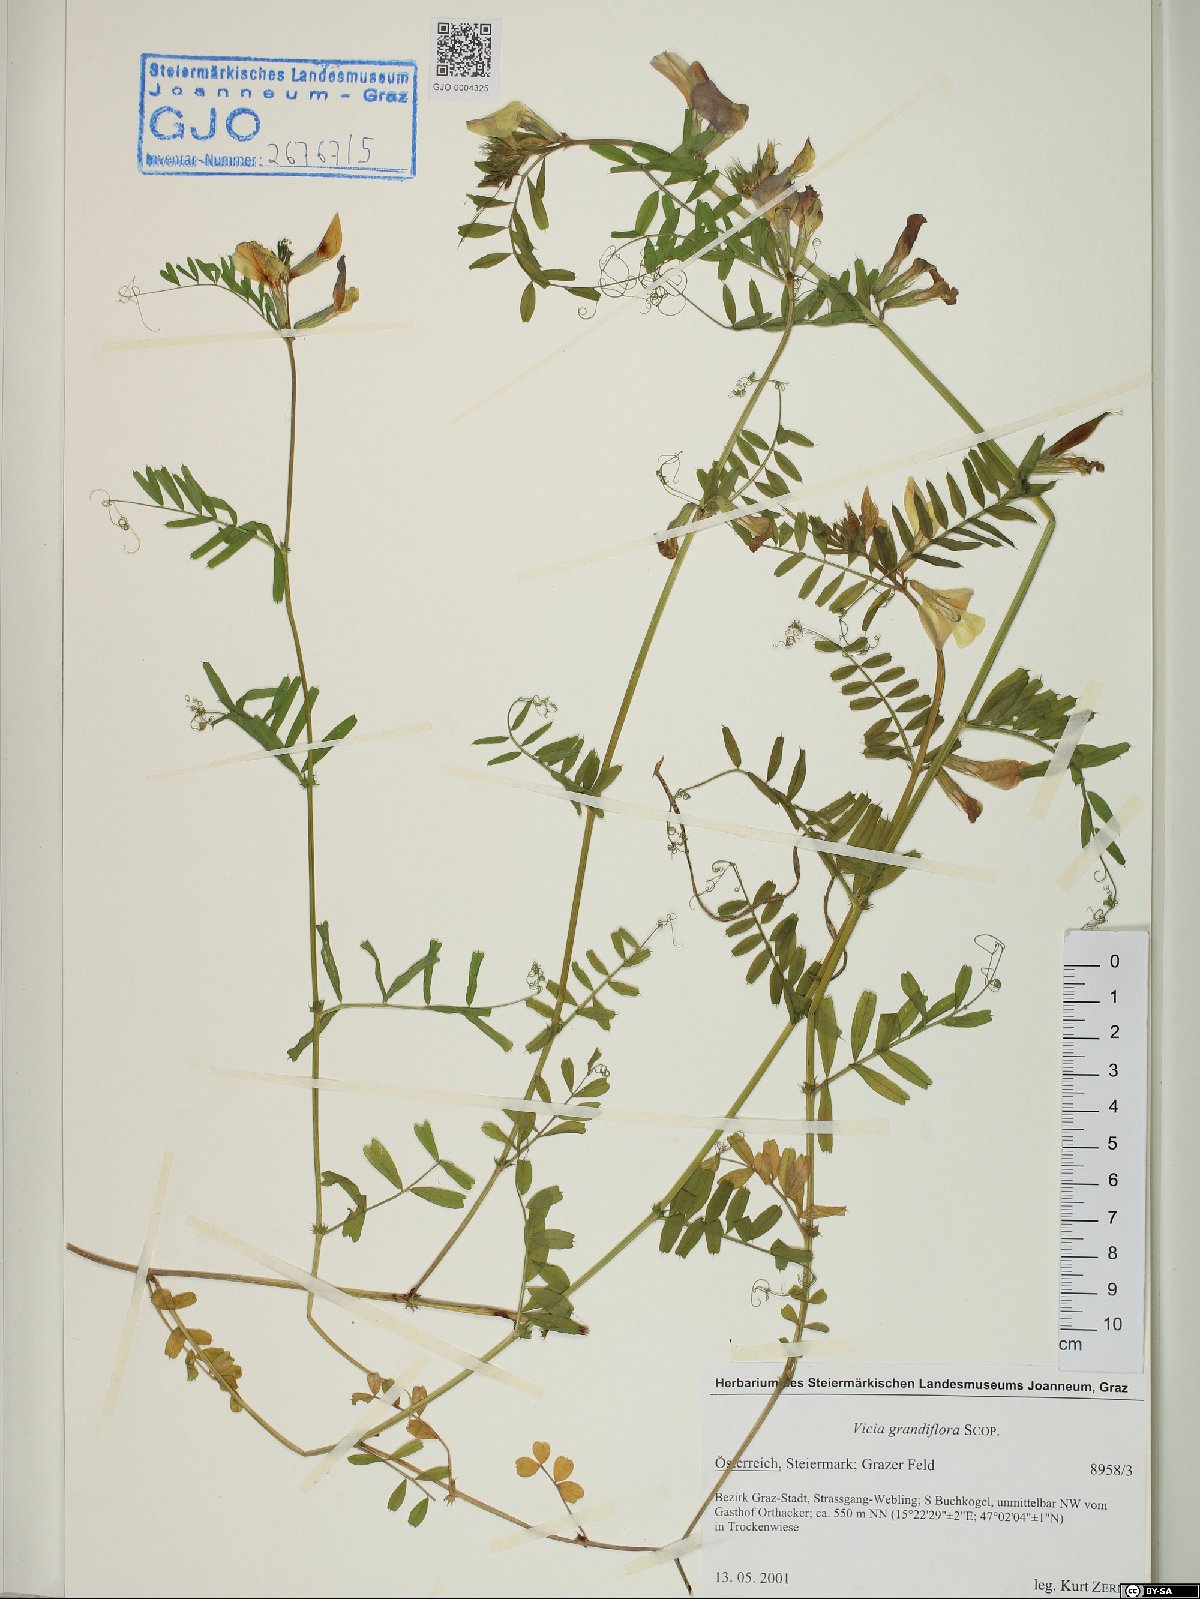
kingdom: Plantae
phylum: Tracheophyta
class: Magnoliopsida
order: Fabales
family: Fabaceae
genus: Vicia
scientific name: Vicia grandiflora
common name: Large yellow vetch
